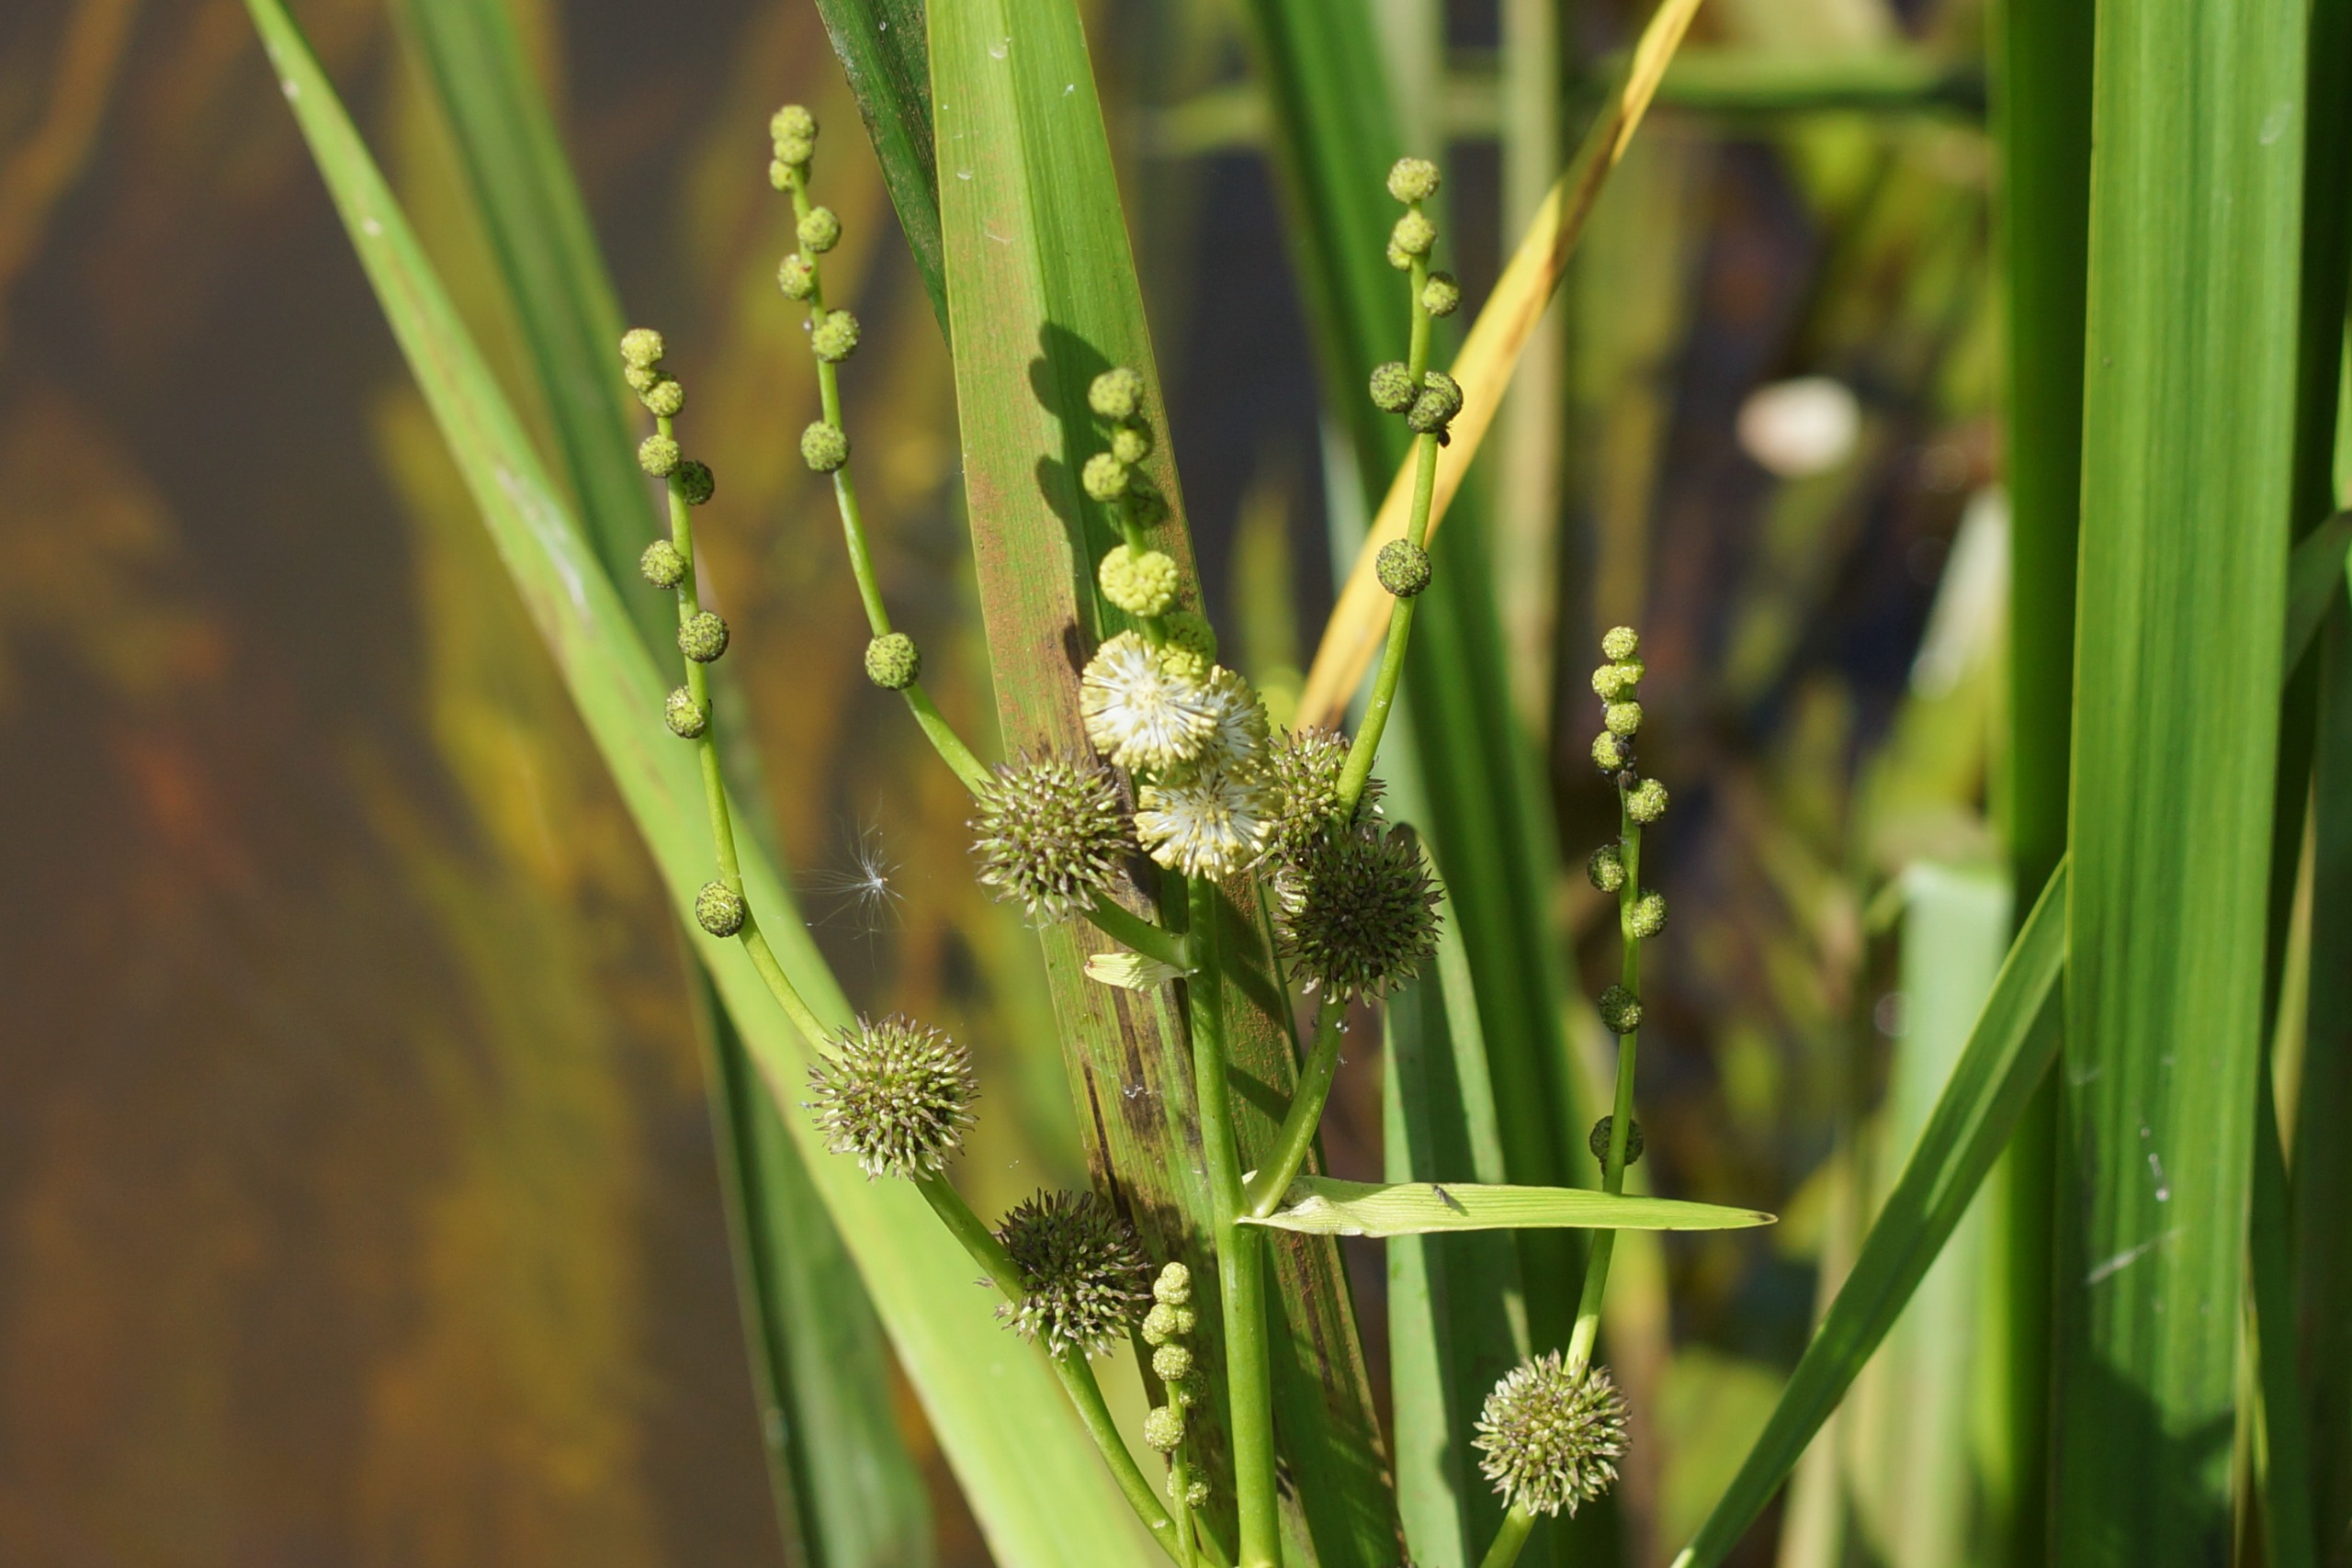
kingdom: Plantae
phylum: Tracheophyta
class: Liliopsida
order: Poales
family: Typhaceae
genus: Sparganium
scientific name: Sparganium erectum
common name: Grenet pindsvineknop
